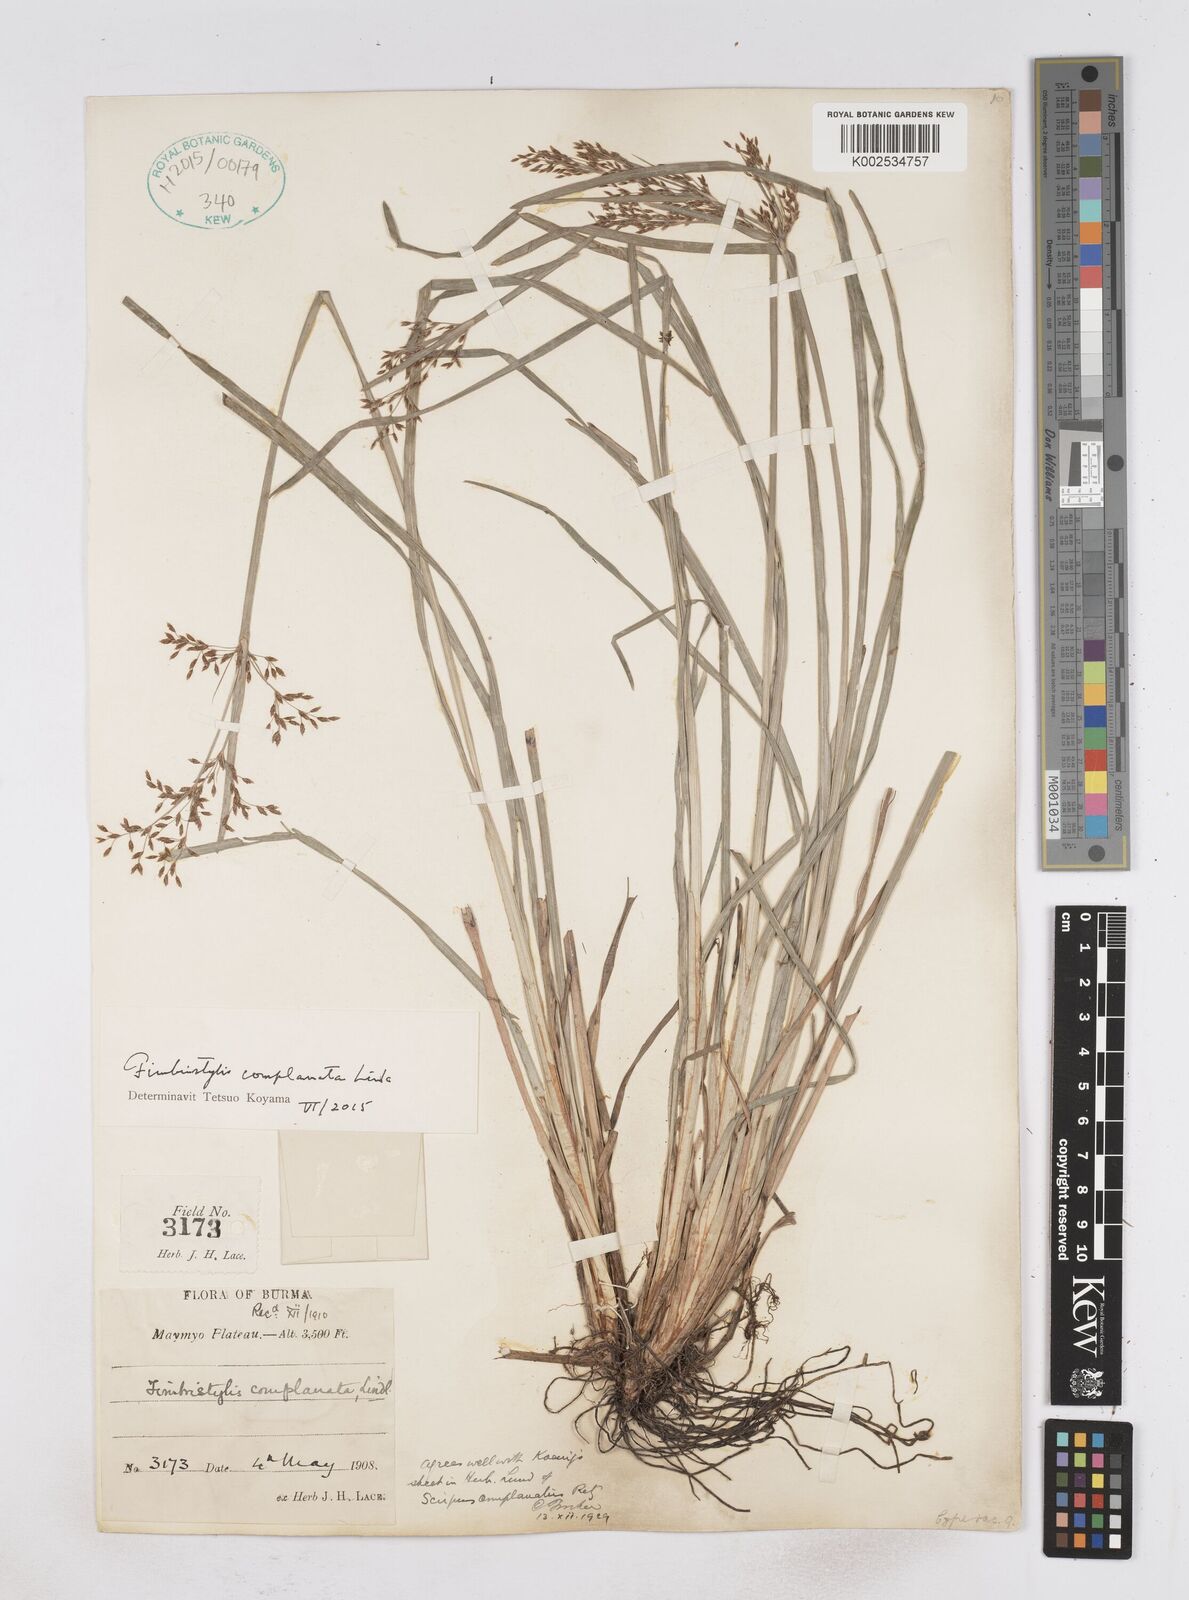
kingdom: Plantae
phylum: Tracheophyta
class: Liliopsida
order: Poales
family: Cyperaceae
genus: Fimbristylis
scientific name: Fimbristylis complanata
